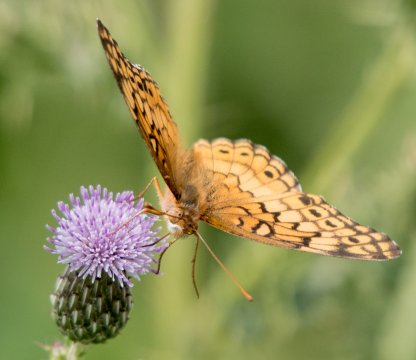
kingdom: Animalia
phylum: Arthropoda
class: Insecta
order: Lepidoptera
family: Nymphalidae
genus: Euptoieta
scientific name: Euptoieta claudia
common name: Variegated Fritillary
